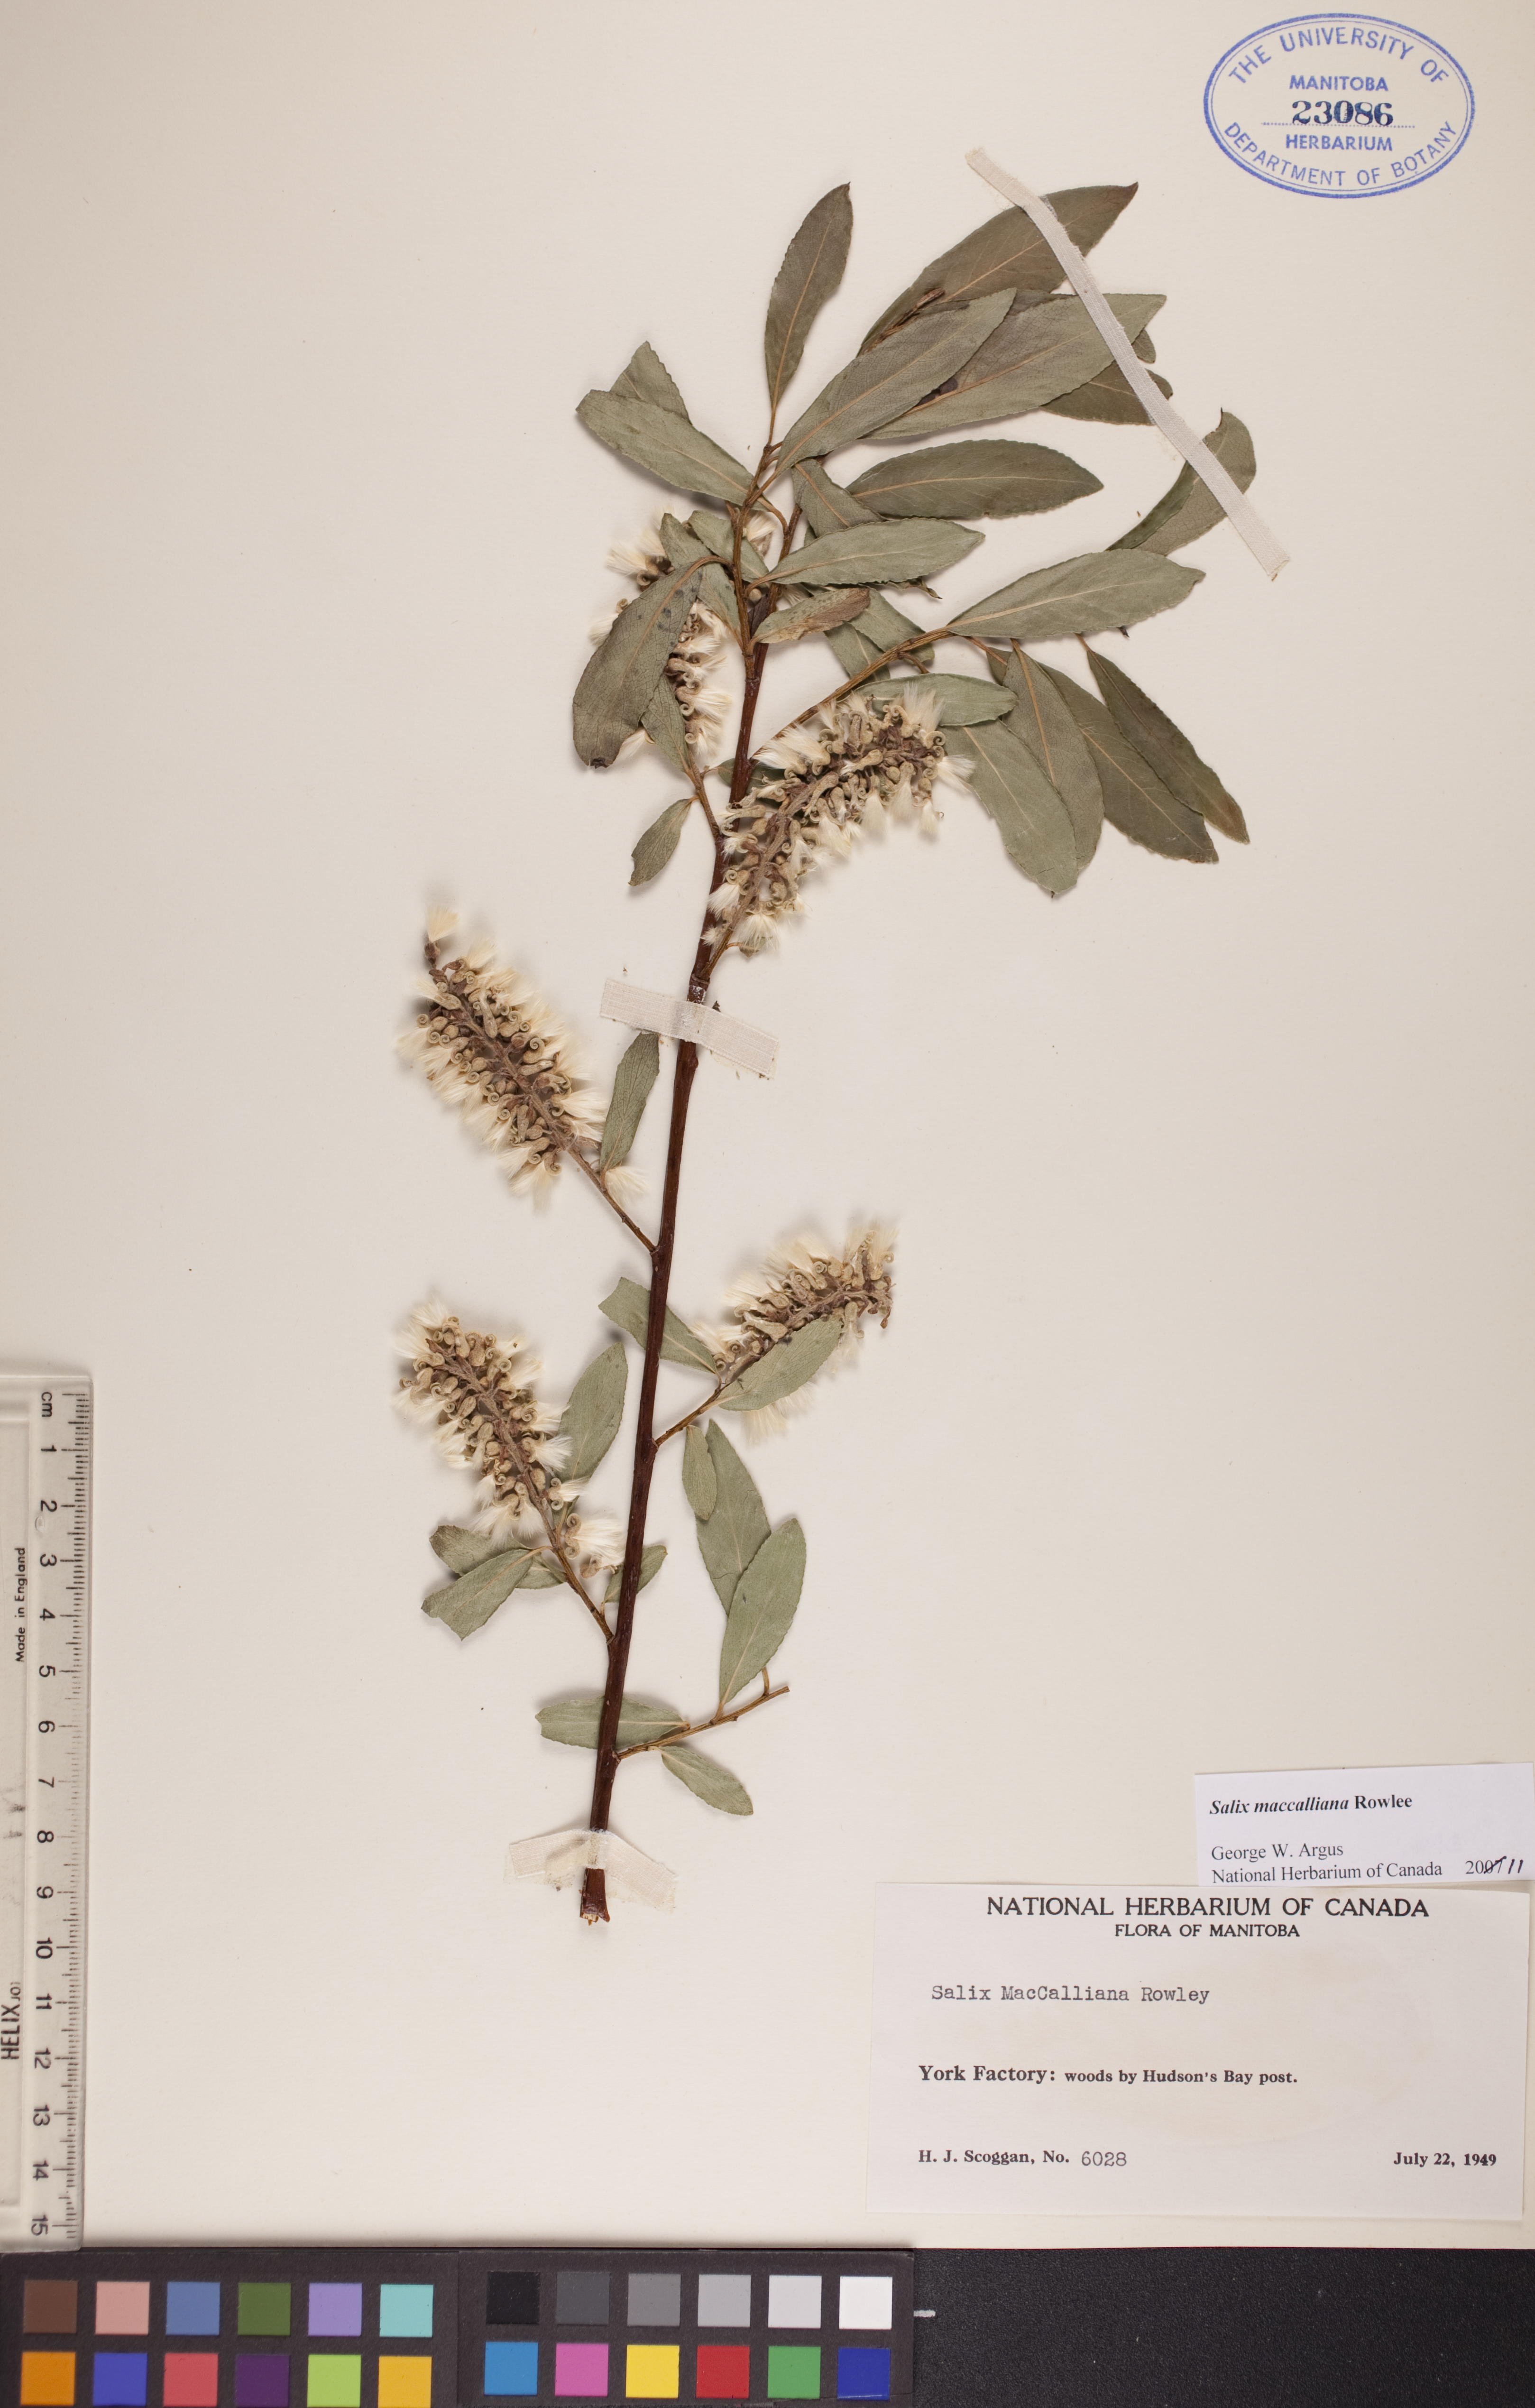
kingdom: Plantae
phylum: Tracheophyta
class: Magnoliopsida
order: Malpighiales
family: Salicaceae
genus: Salix
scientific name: Salix maccalliana
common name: Maccalla’s willow
